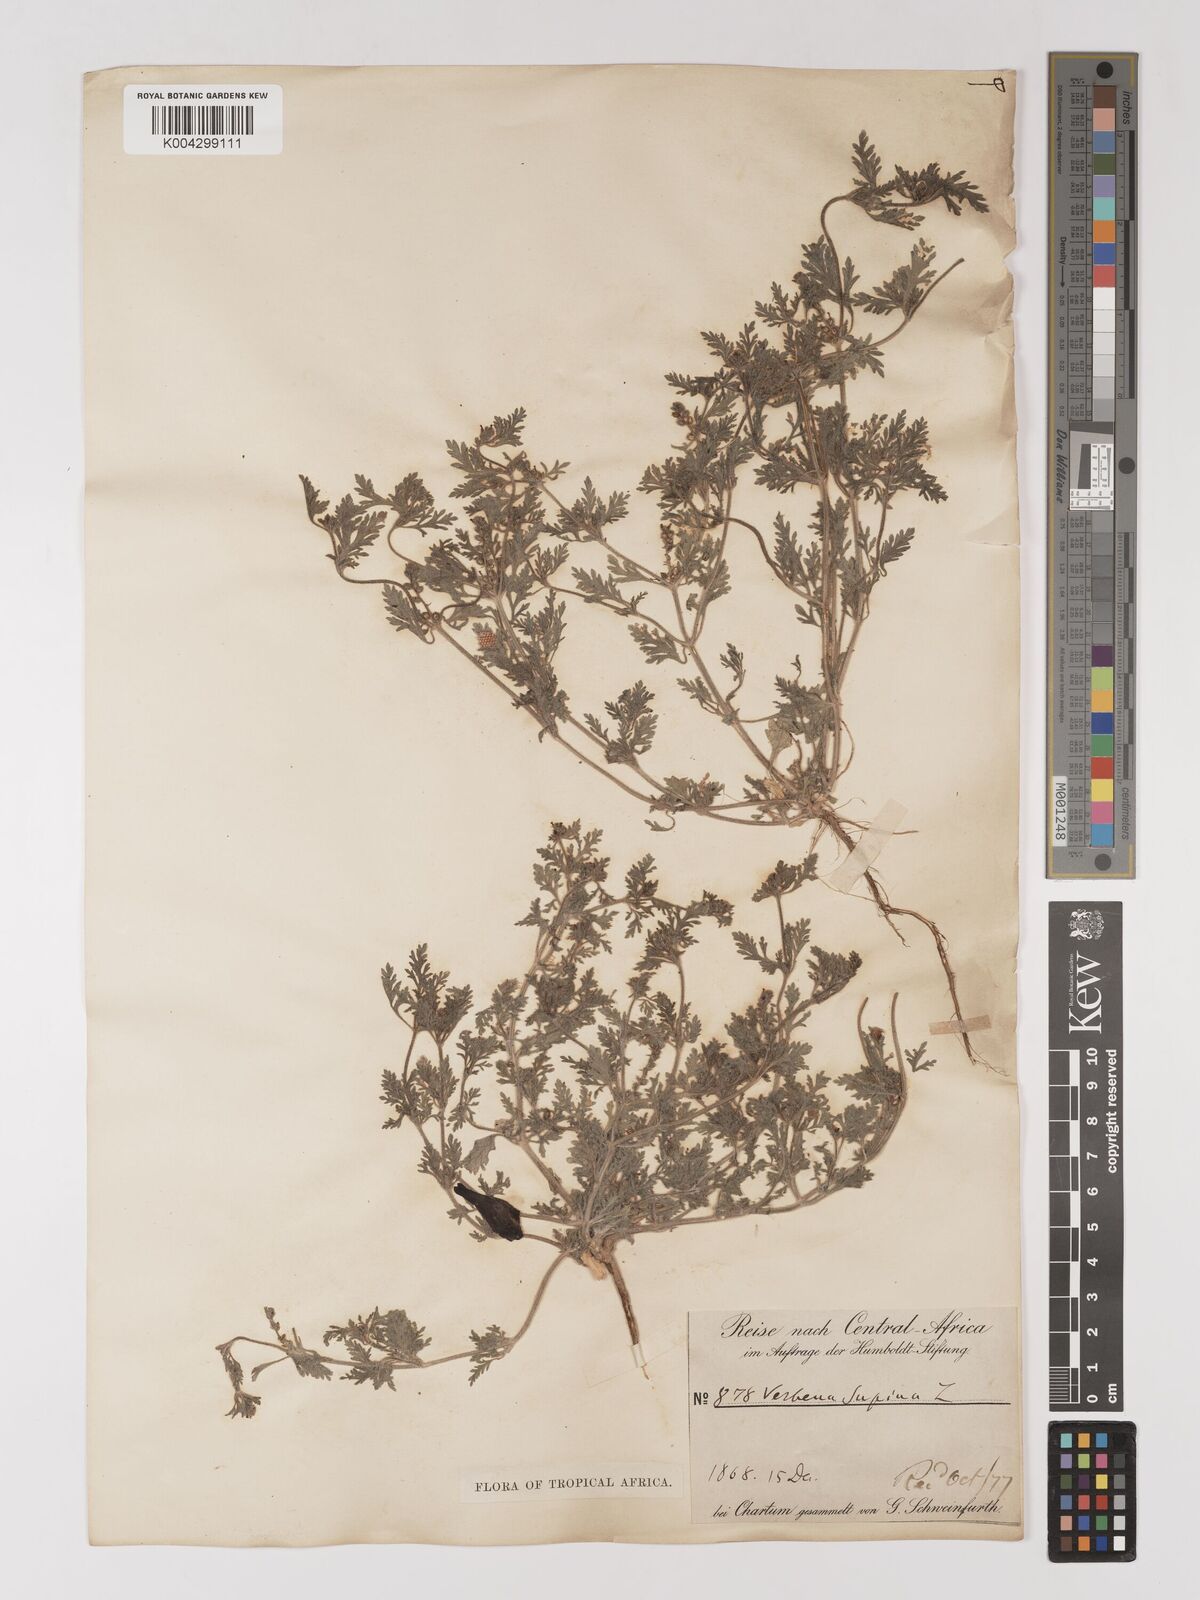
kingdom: Plantae
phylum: Tracheophyta
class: Magnoliopsida
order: Lamiales
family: Verbenaceae
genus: Verbena
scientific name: Verbena supina
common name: Trailing vervain
